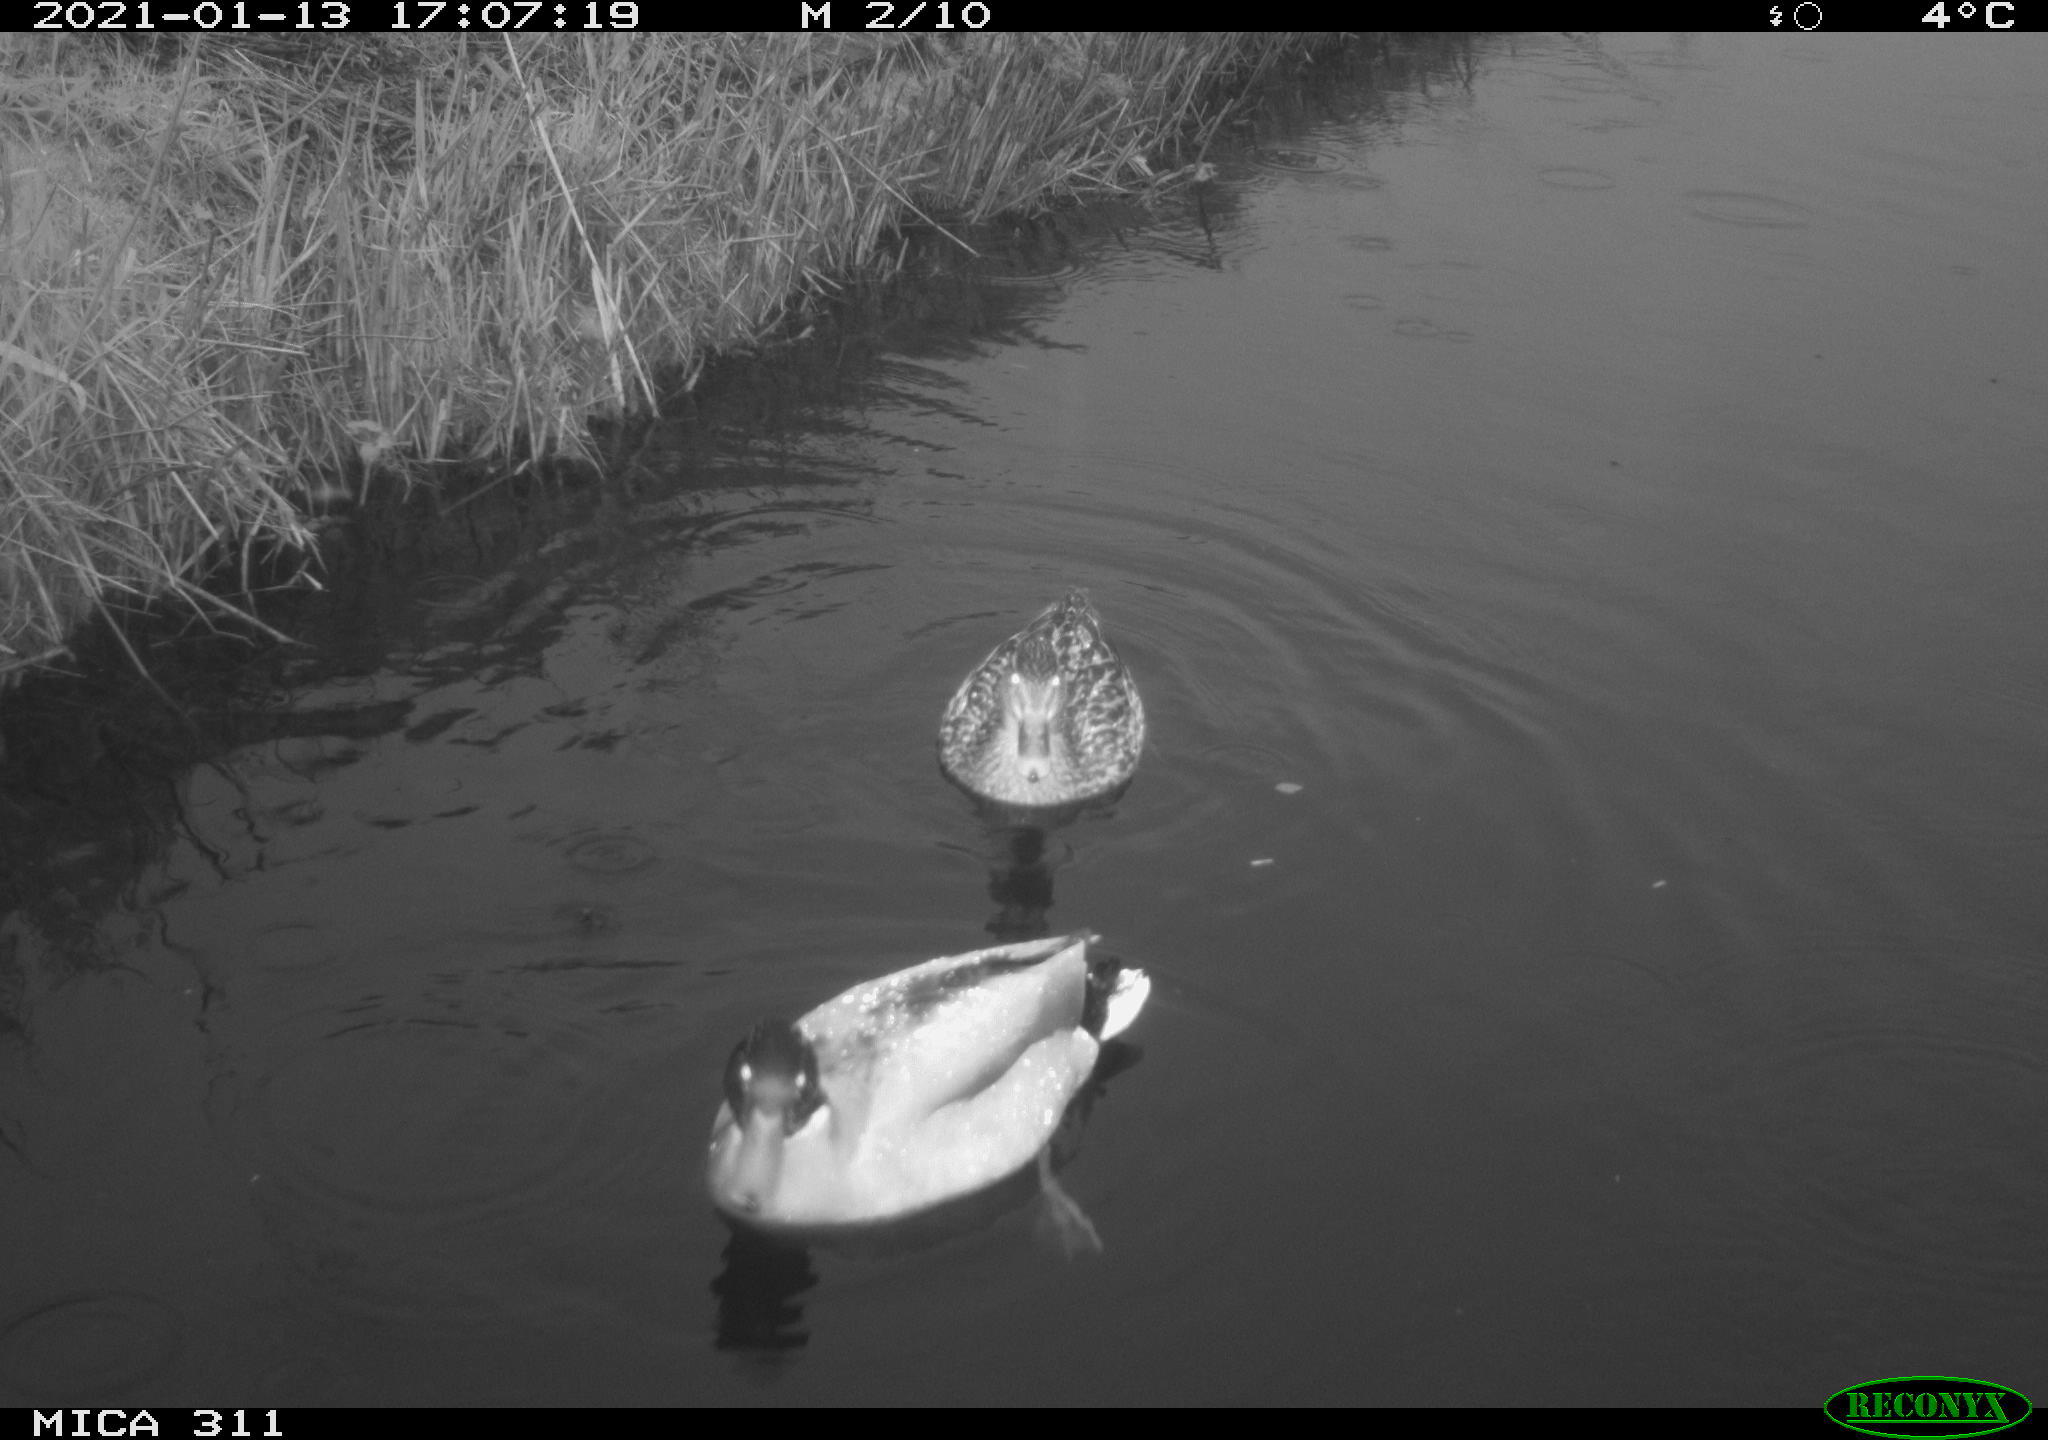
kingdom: Animalia
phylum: Chordata
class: Aves
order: Anseriformes
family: Anatidae
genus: Anas
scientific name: Anas
